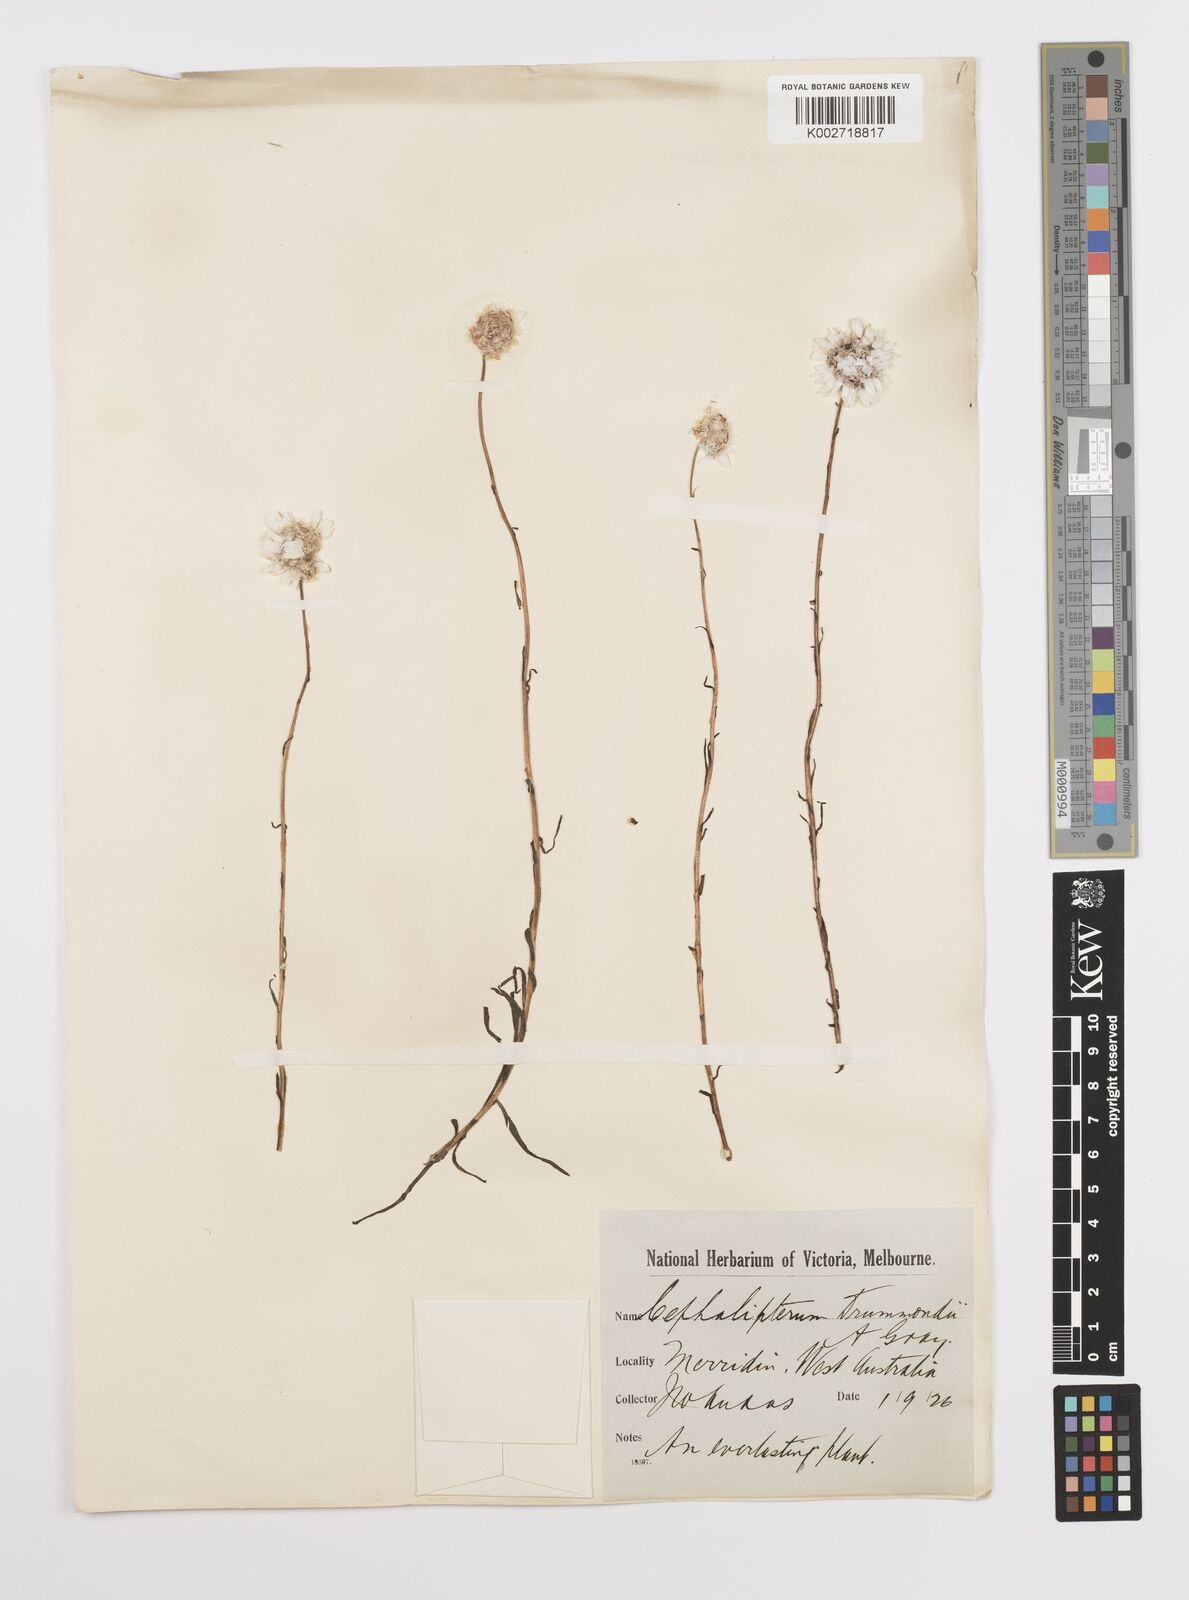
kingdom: Plantae
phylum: Tracheophyta
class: Magnoliopsida
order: Asterales
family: Asteraceae
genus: Cephalipterum
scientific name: Cephalipterum drummondii
